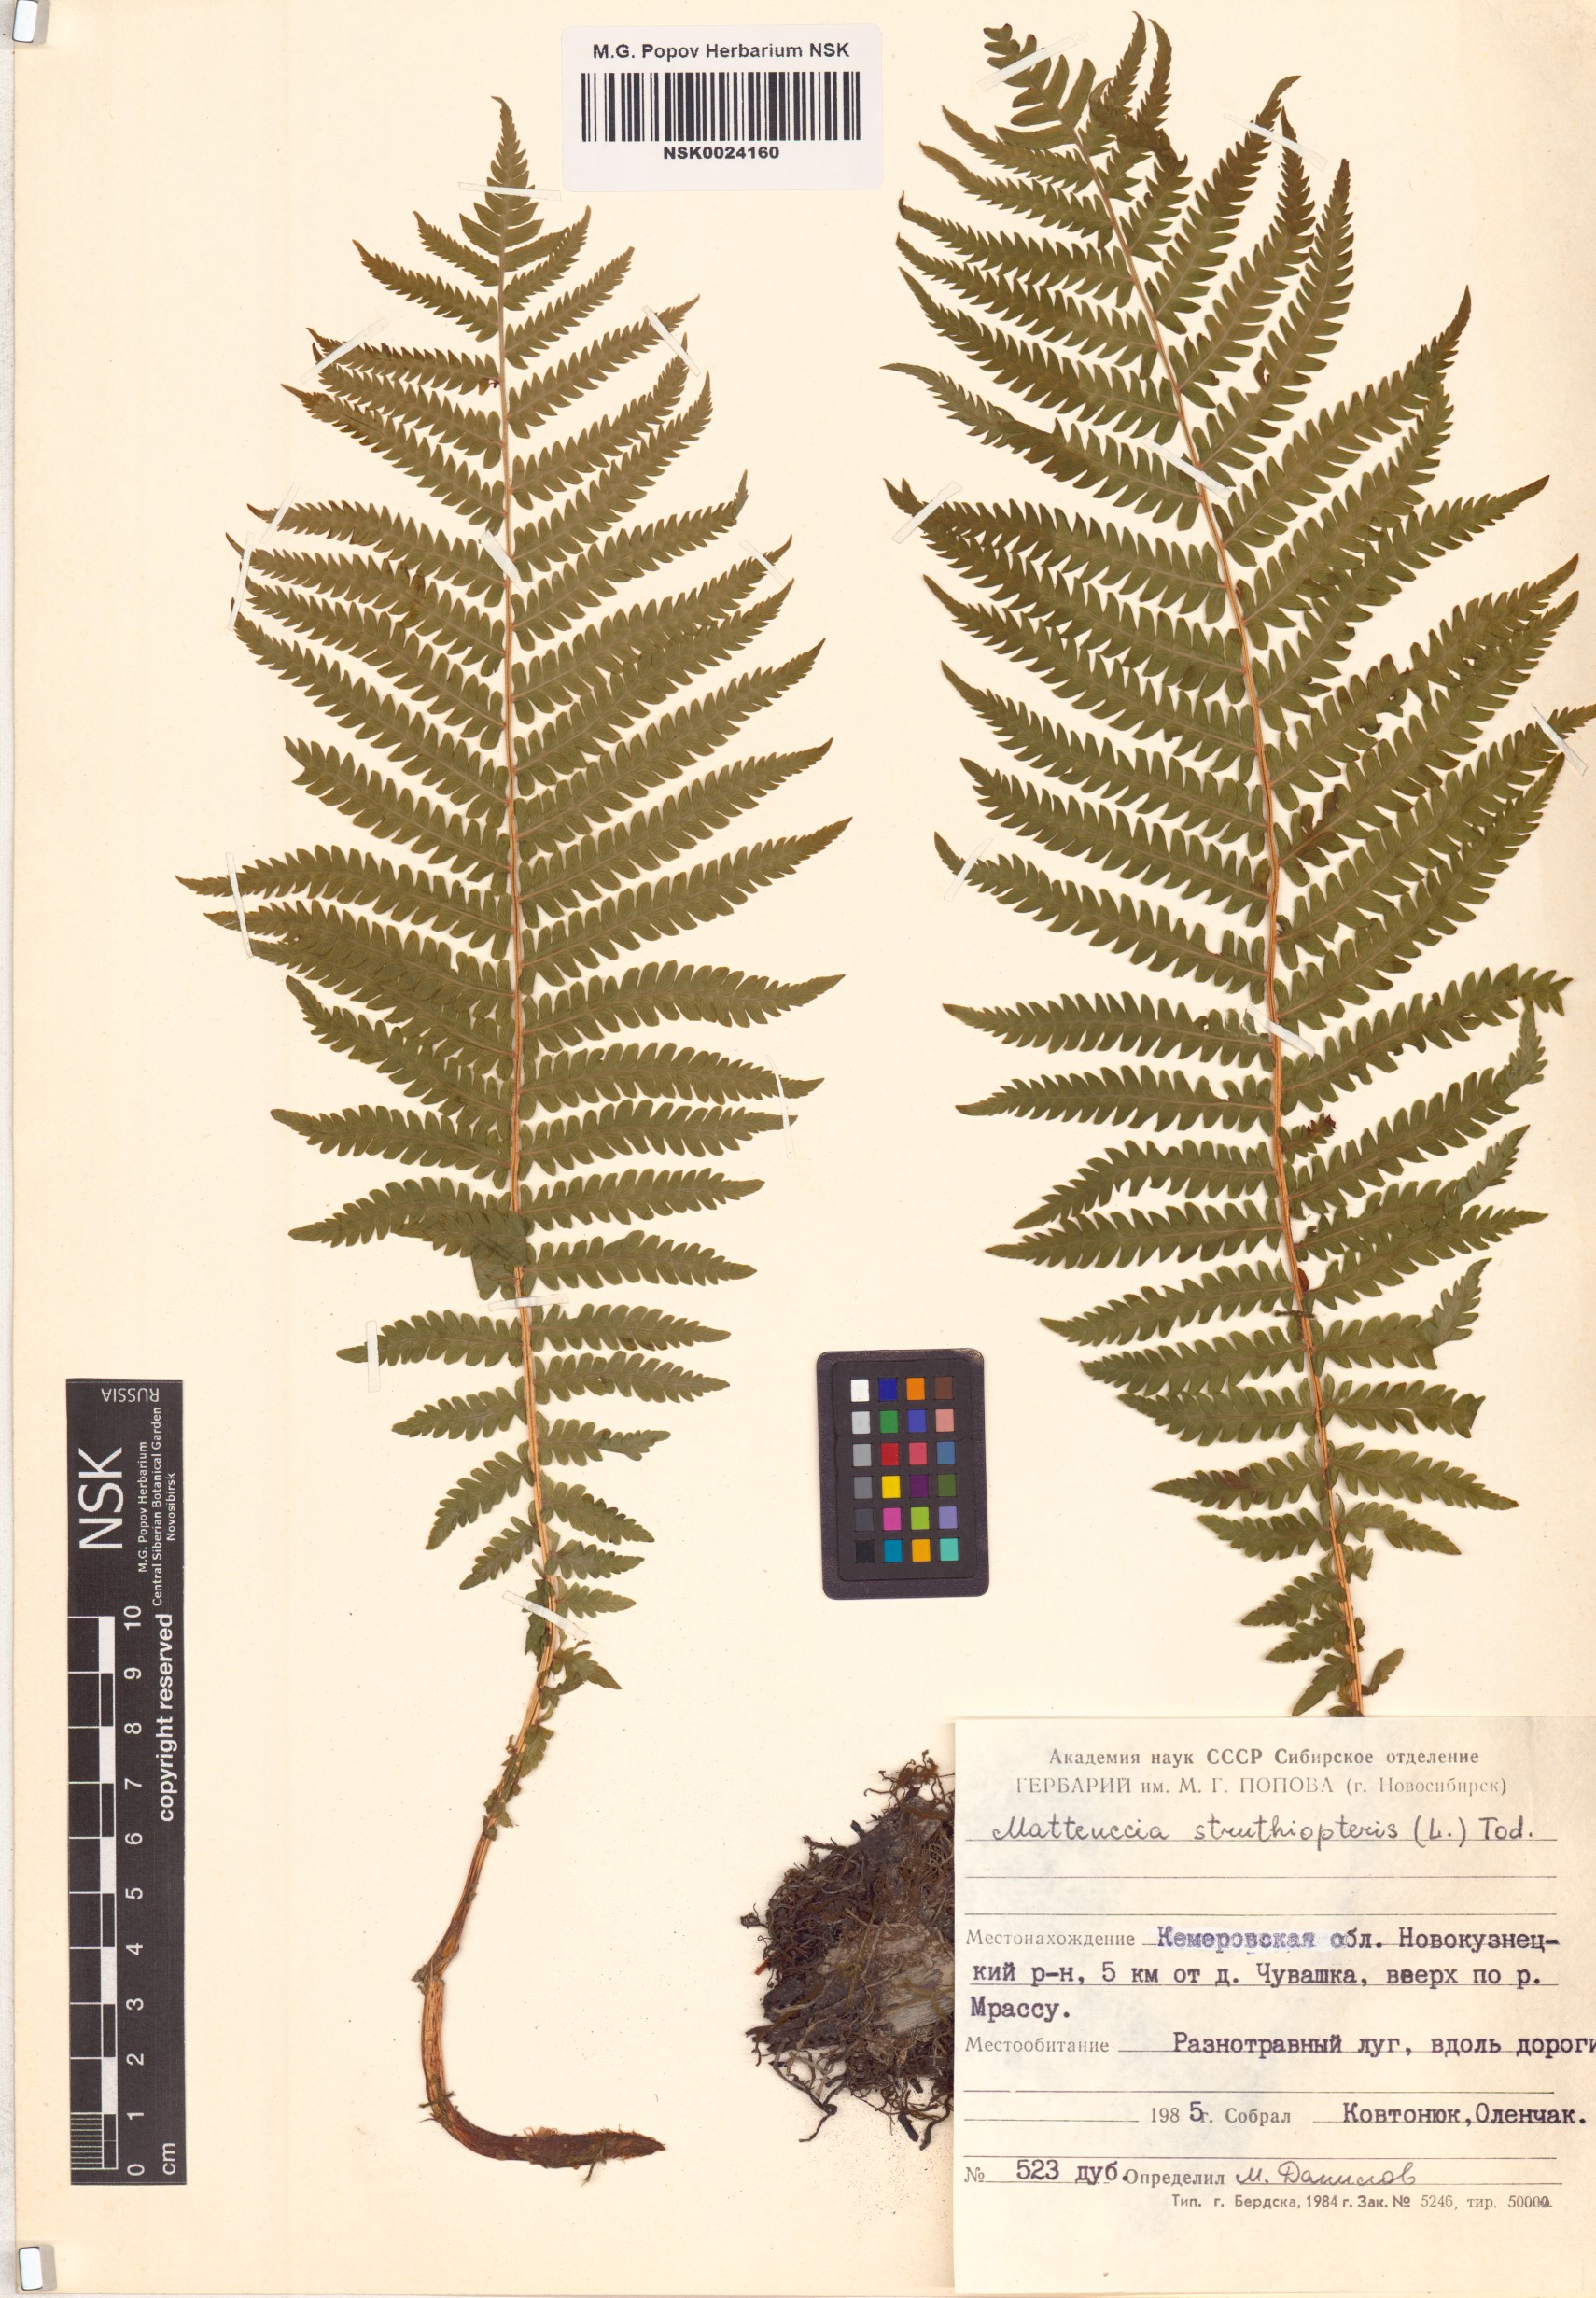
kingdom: Plantae
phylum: Tracheophyta
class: Polypodiopsida
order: Polypodiales
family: Onocleaceae
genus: Matteuccia
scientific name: Matteuccia struthiopteris
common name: Ostrich fern
